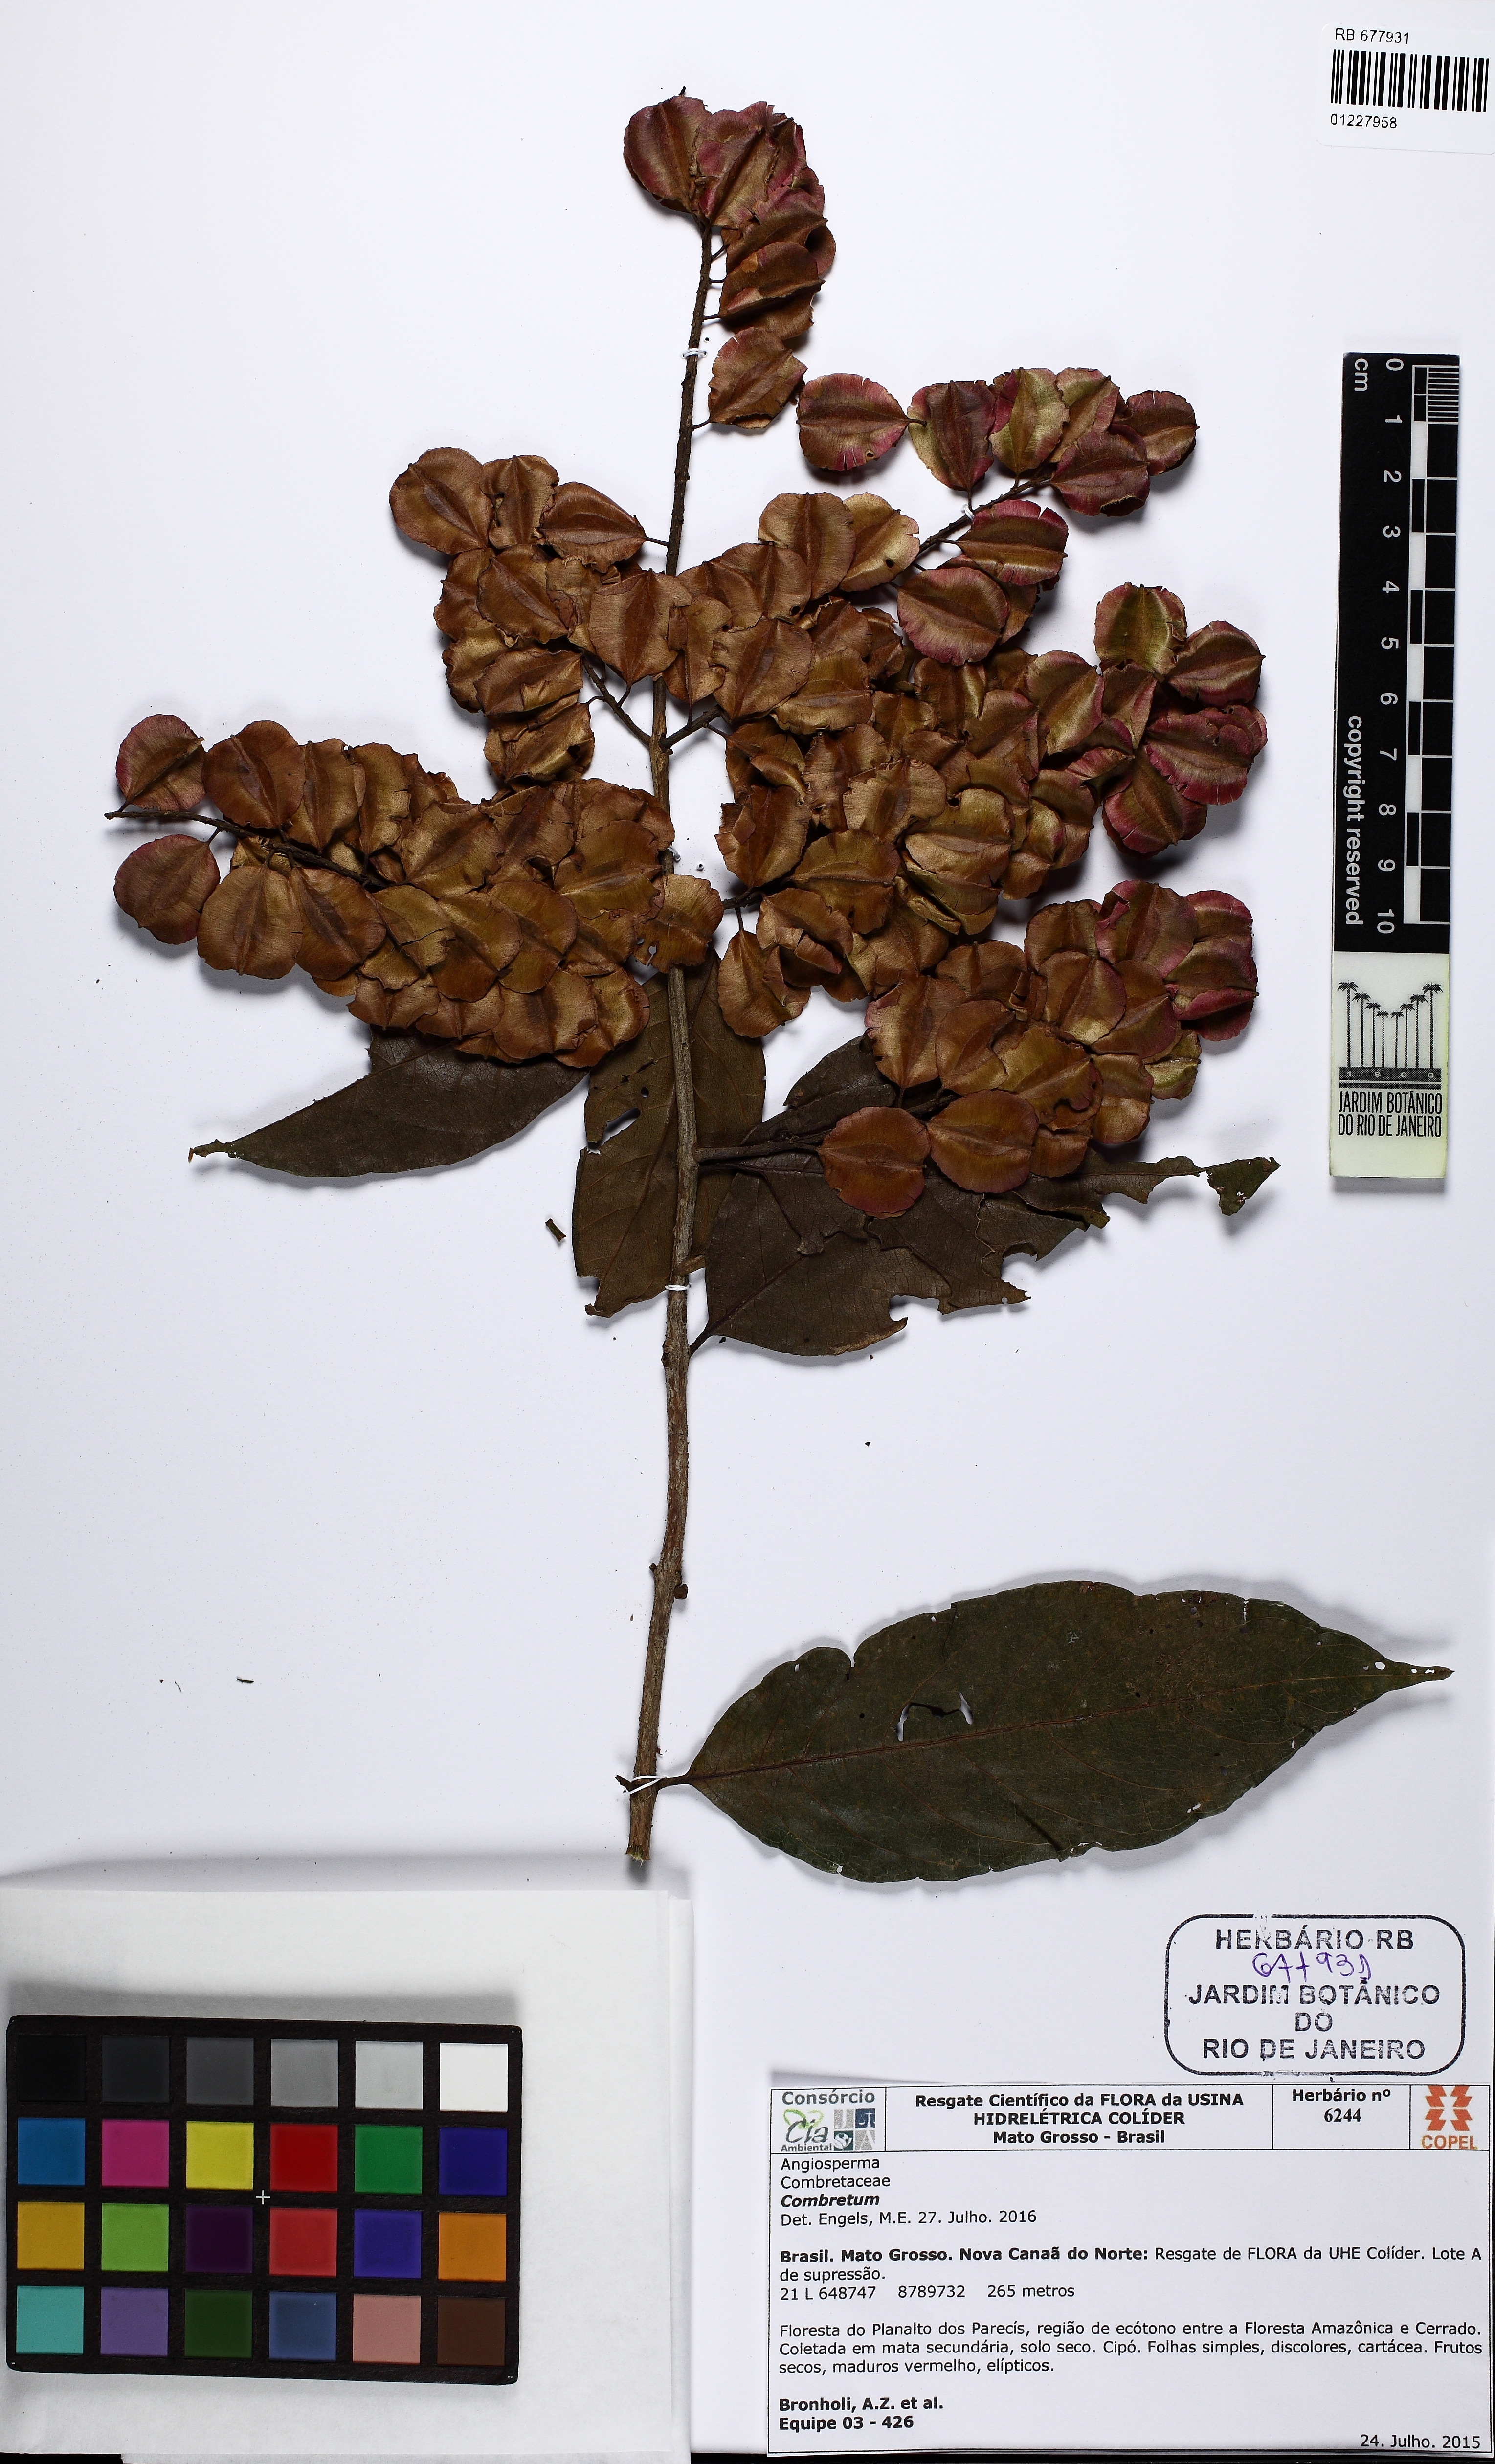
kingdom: Plantae
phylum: Tracheophyta
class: Magnoliopsida
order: Myrtales
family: Combretaceae
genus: Combretum
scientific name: Combretum
